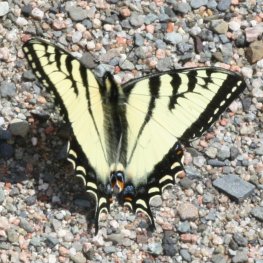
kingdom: Animalia
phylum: Arthropoda
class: Insecta
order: Lepidoptera
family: Papilionidae
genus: Pterourus
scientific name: Pterourus canadensis
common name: Canadian Tiger Swallowtail
